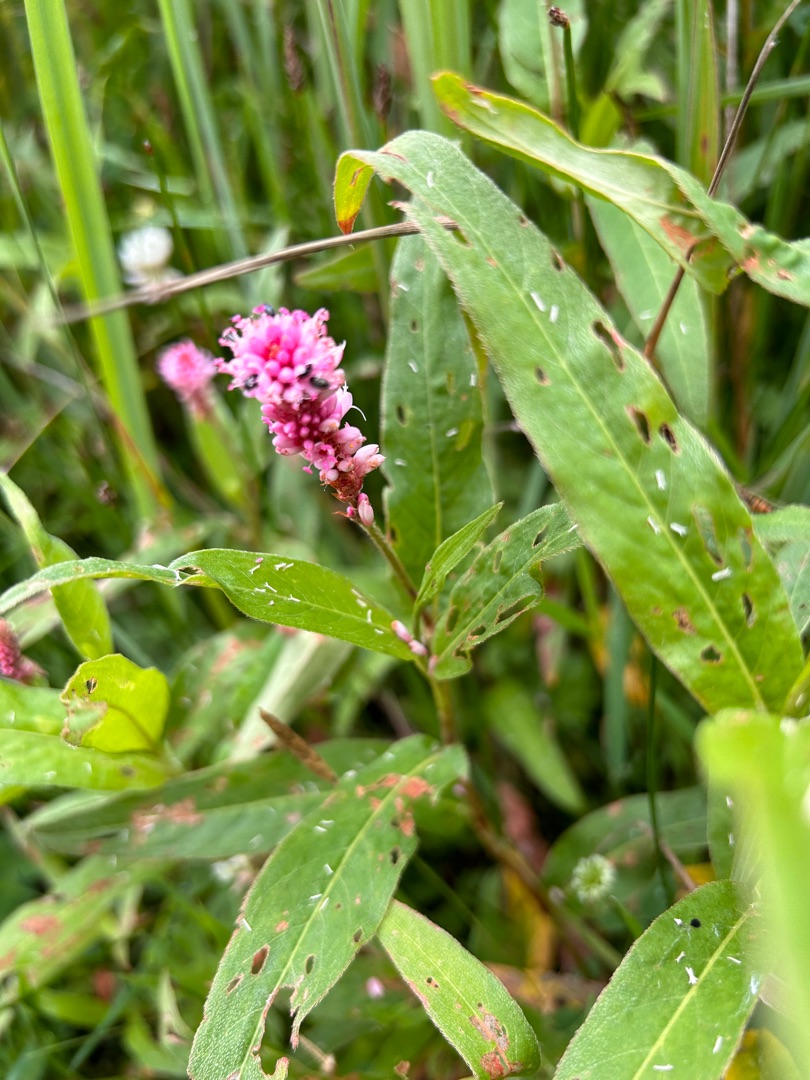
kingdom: Plantae
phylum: Tracheophyta
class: Magnoliopsida
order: Caryophyllales
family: Polygonaceae
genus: Persicaria
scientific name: Persicaria amphibia
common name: Vand-pileurt
